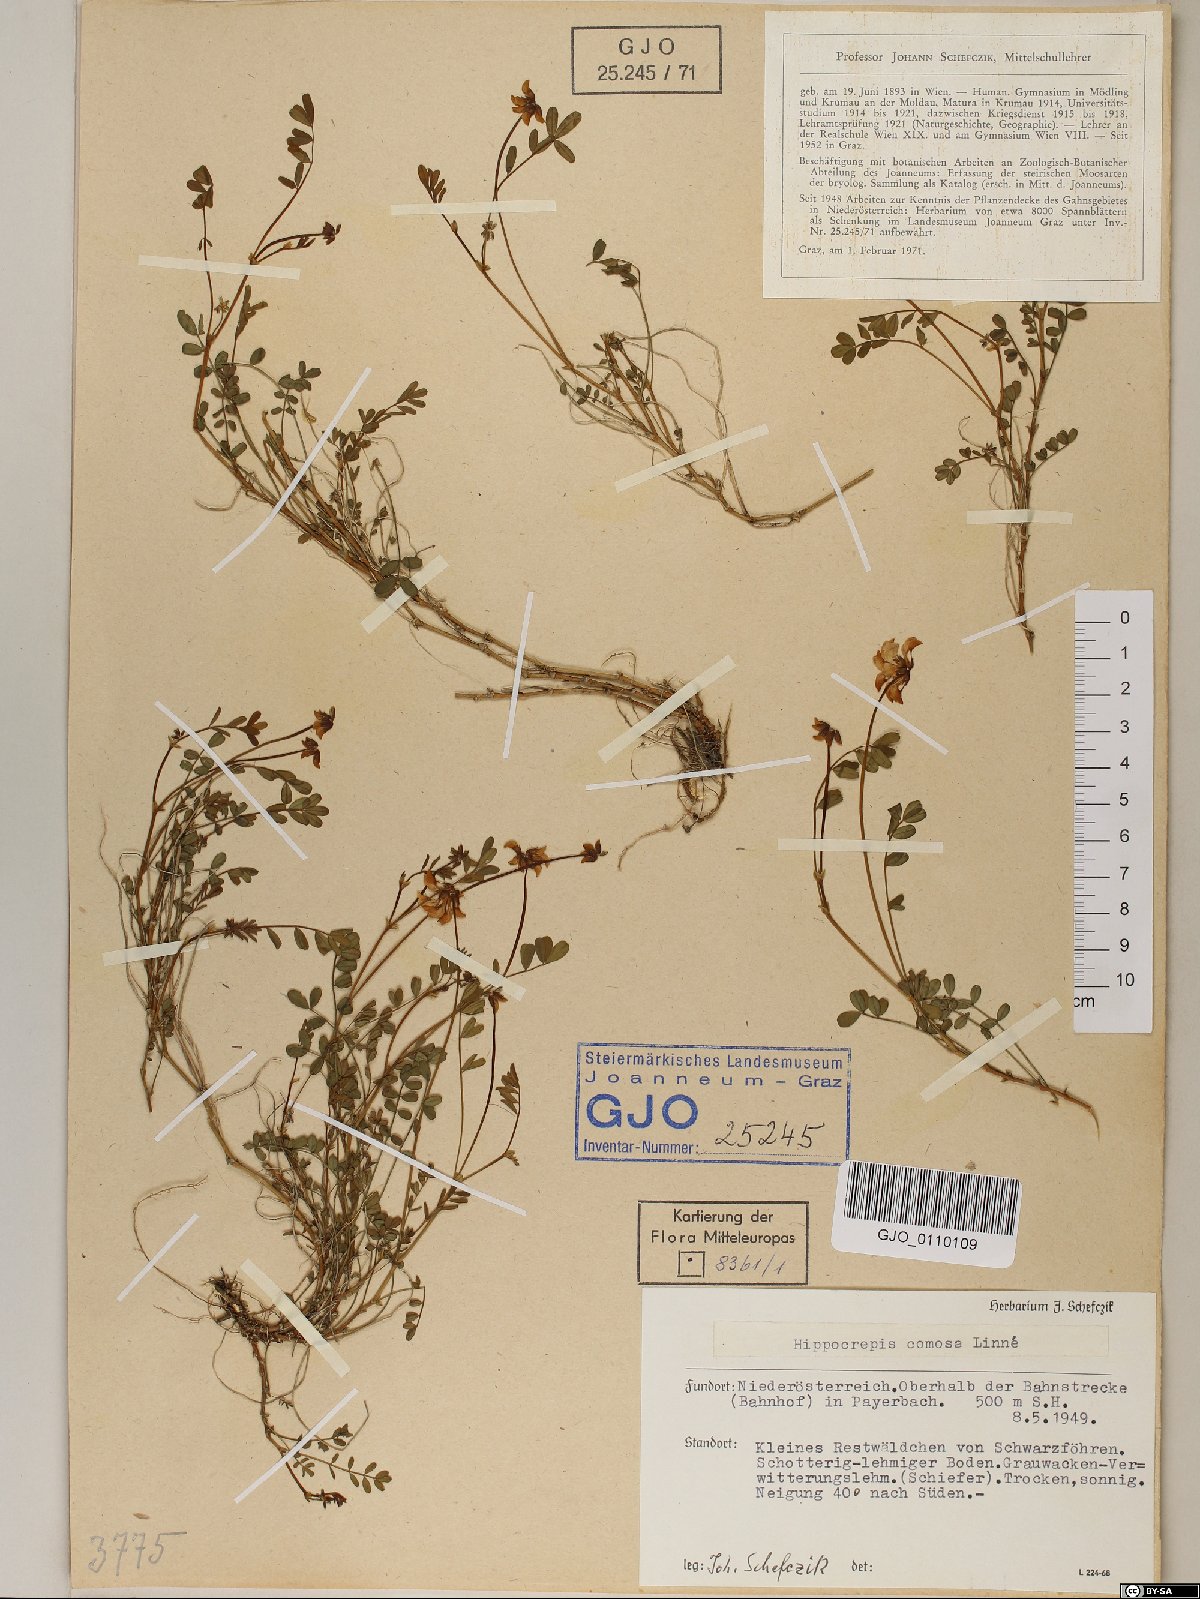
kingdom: Plantae
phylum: Tracheophyta
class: Magnoliopsida
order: Fabales
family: Fabaceae
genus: Hippocrepis
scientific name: Hippocrepis comosa
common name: Horseshoe vetch
